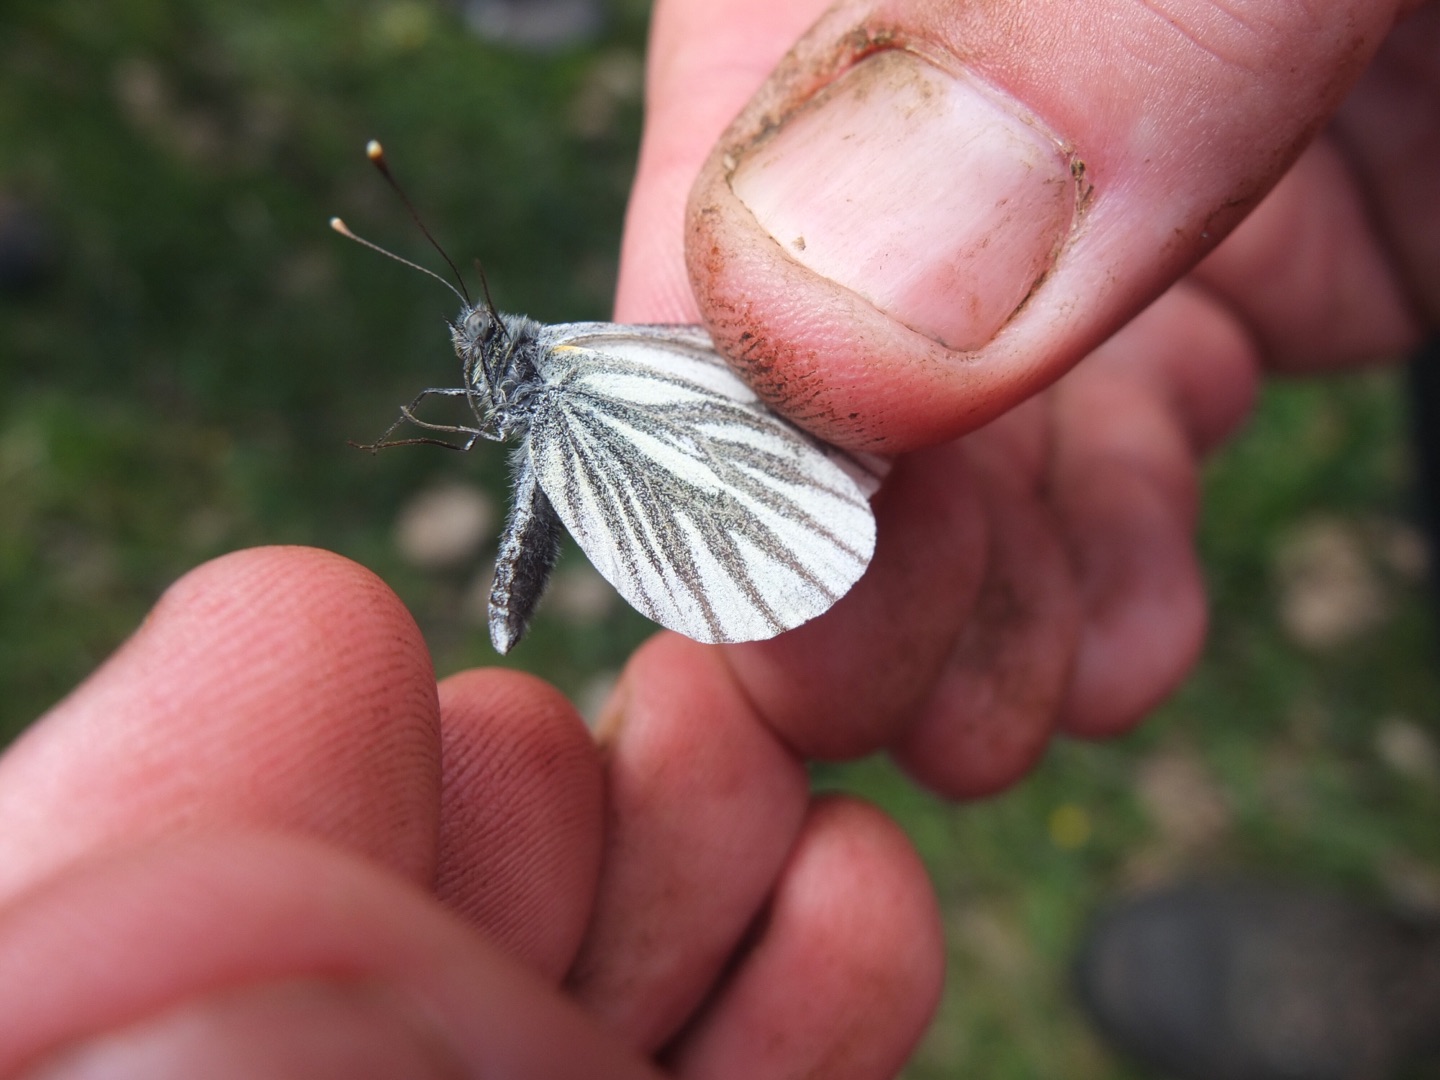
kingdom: Animalia
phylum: Arthropoda
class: Insecta
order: Lepidoptera
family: Pieridae
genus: Pieris
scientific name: Pieris napi
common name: Grønåret kålsommerfugl
